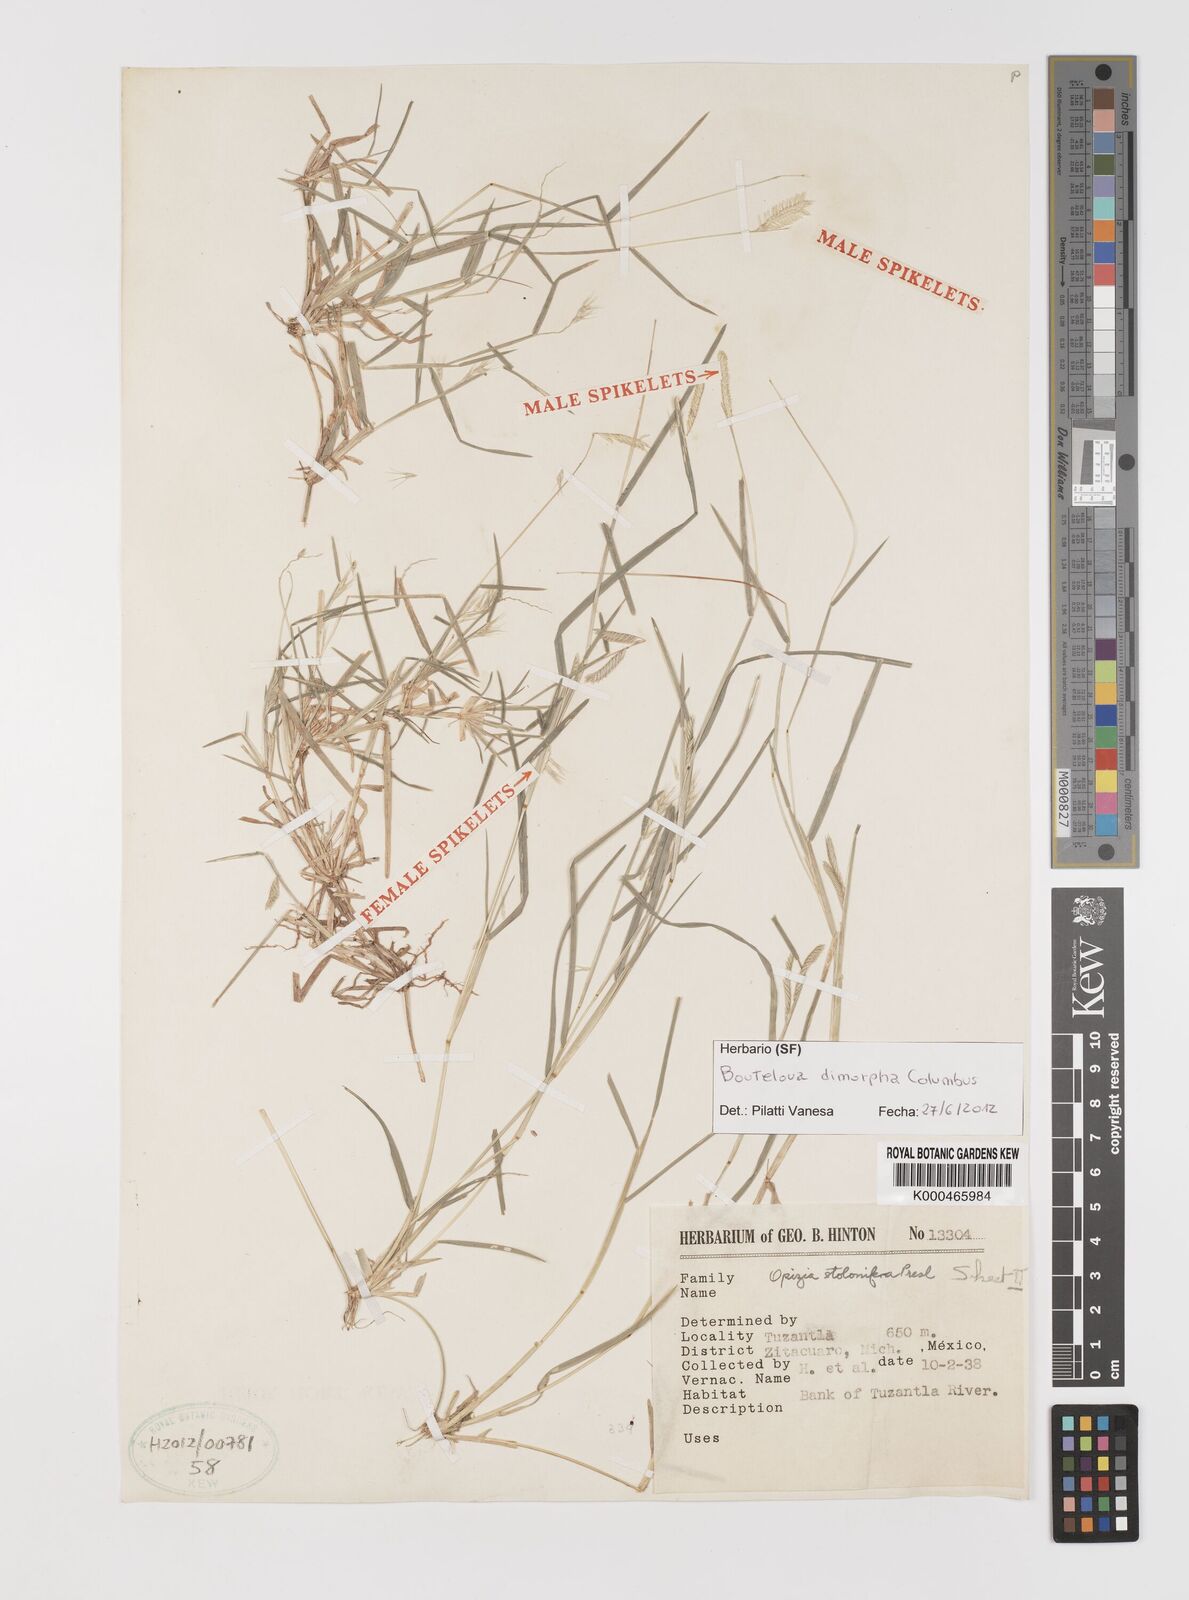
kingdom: Plantae
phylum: Tracheophyta
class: Liliopsida
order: Poales
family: Poaceae
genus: Bouteloua
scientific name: Bouteloua dimorpha
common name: Acapulco grass
